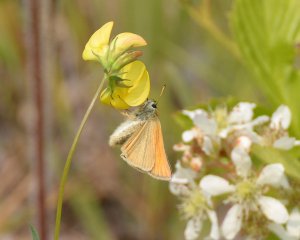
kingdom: Animalia
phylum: Arthropoda
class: Insecta
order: Lepidoptera
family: Hesperiidae
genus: Thymelicus
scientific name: Thymelicus lineola
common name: European Skipper
